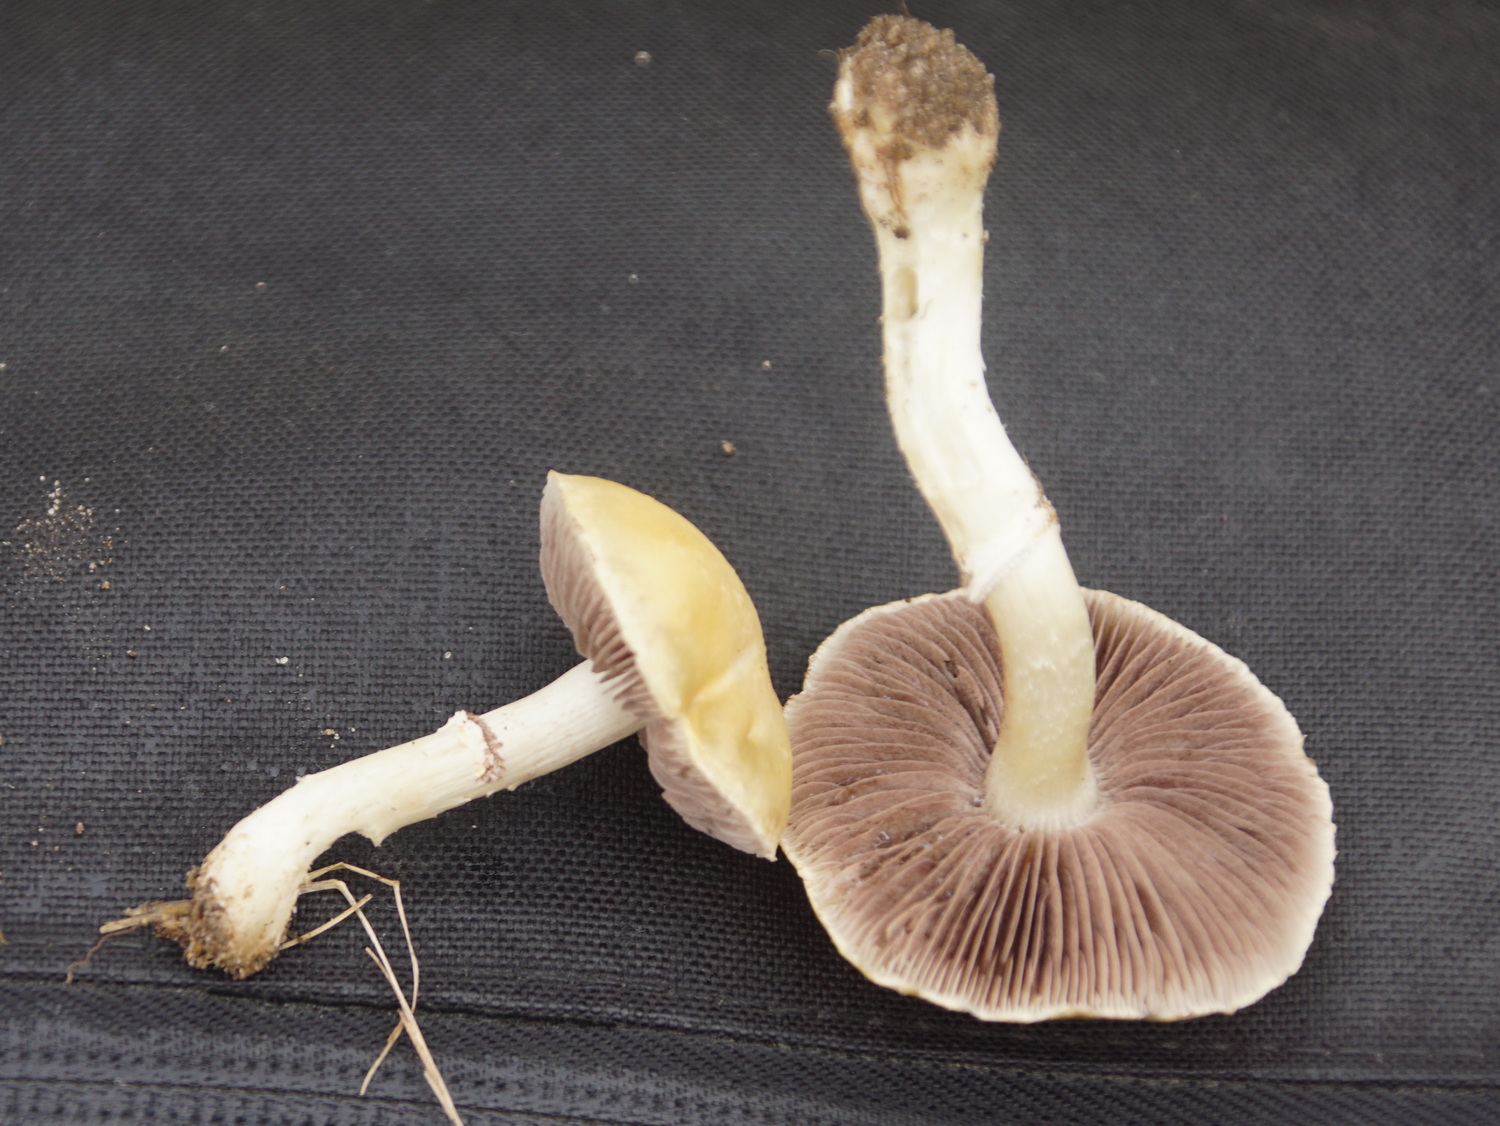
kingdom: Fungi
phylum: Basidiomycota
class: Agaricomycetes
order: Agaricales
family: Hymenogastraceae
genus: Psilocybe
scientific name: Psilocybe coronilla
